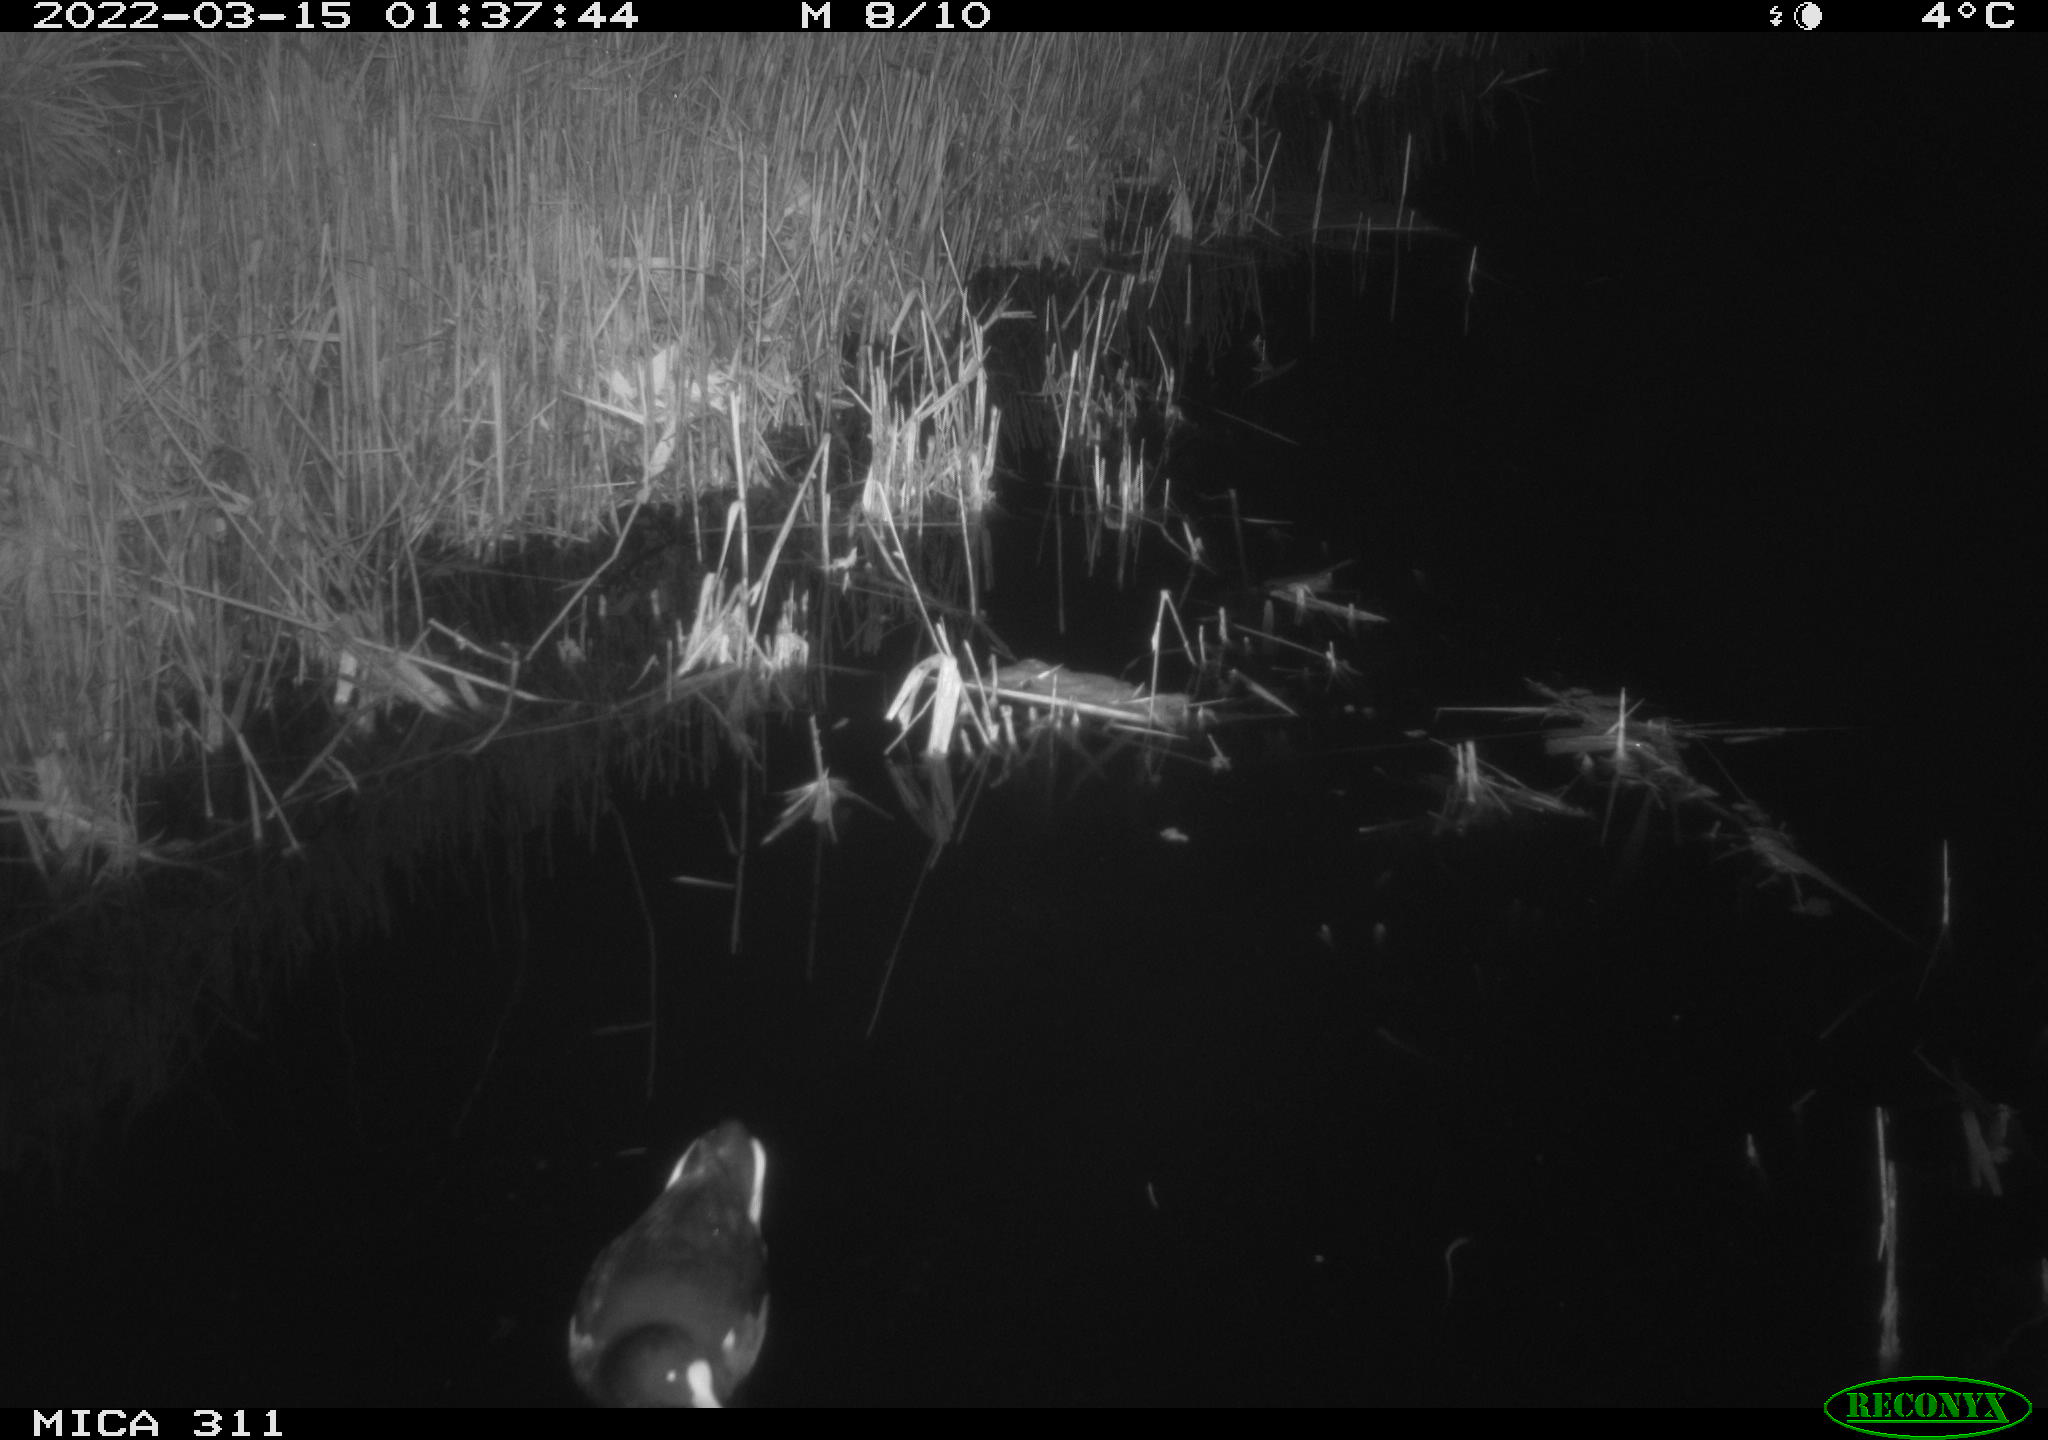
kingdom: Animalia
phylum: Chordata
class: Aves
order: Gruiformes
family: Rallidae
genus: Gallinula
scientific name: Gallinula chloropus
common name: Common moorhen
